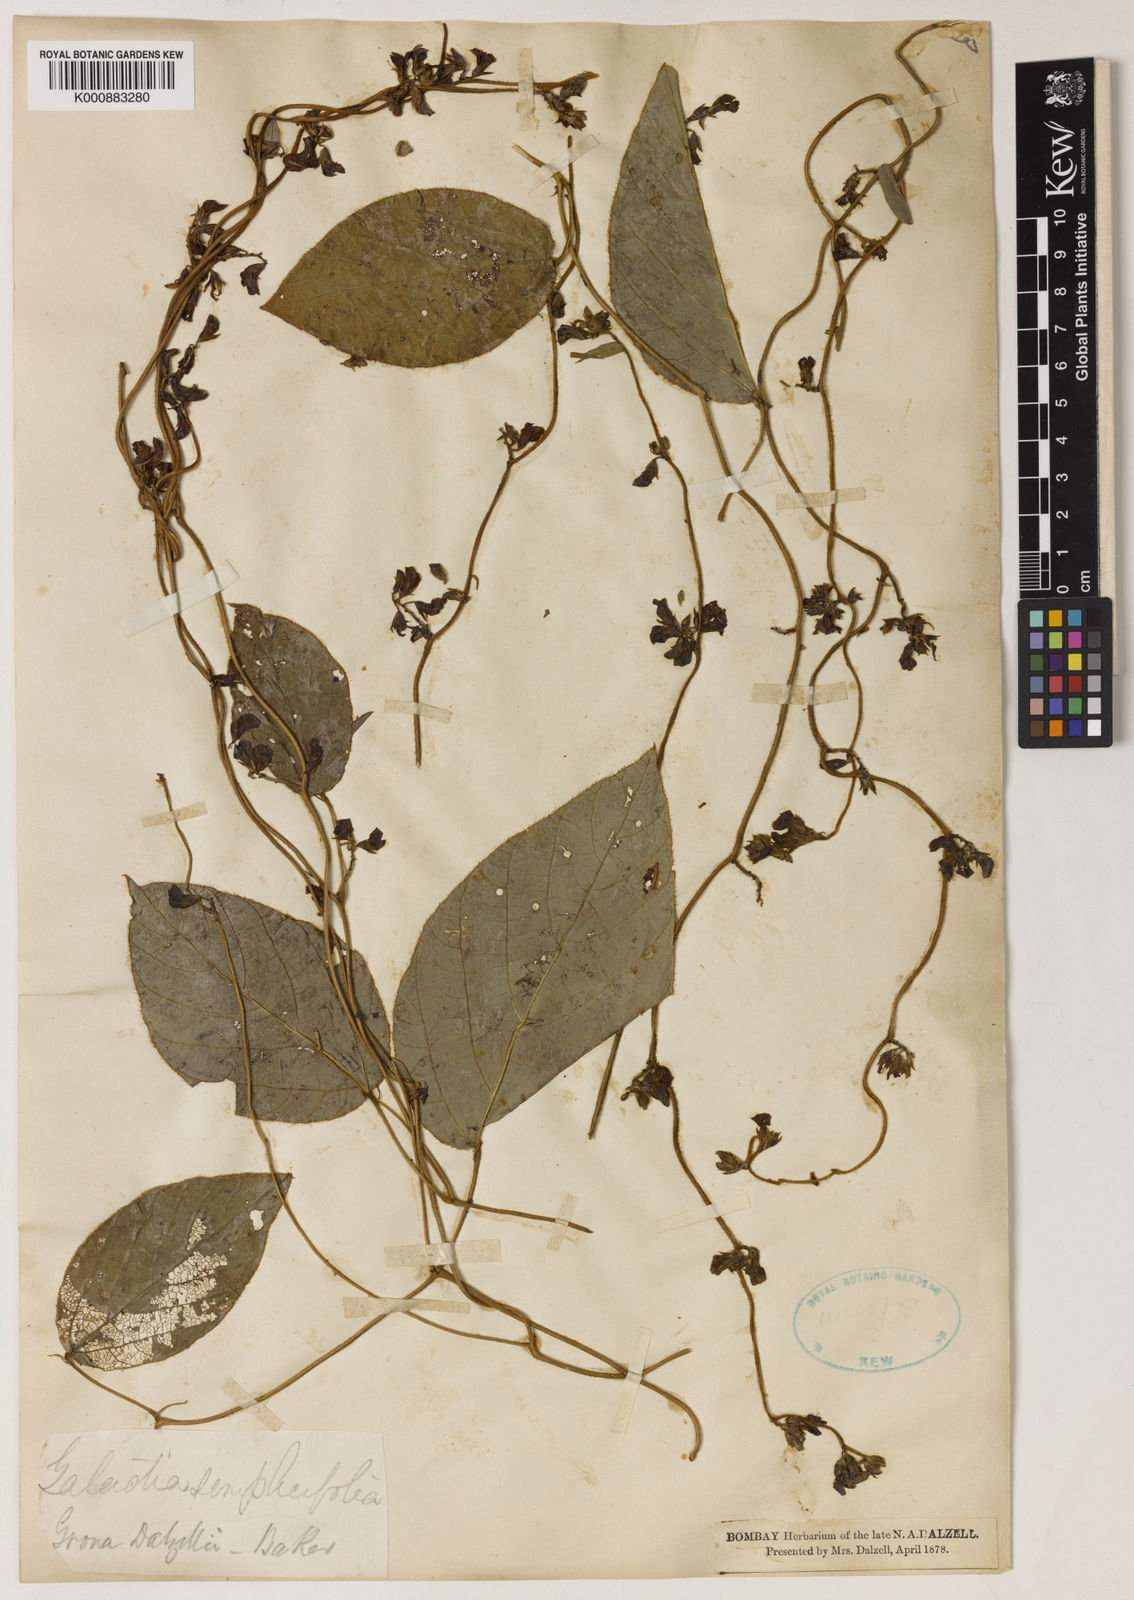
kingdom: Plantae
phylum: Tracheophyta
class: Magnoliopsida
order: Fabales
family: Fabaceae
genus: Nogra
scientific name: Nogra dalzellii
